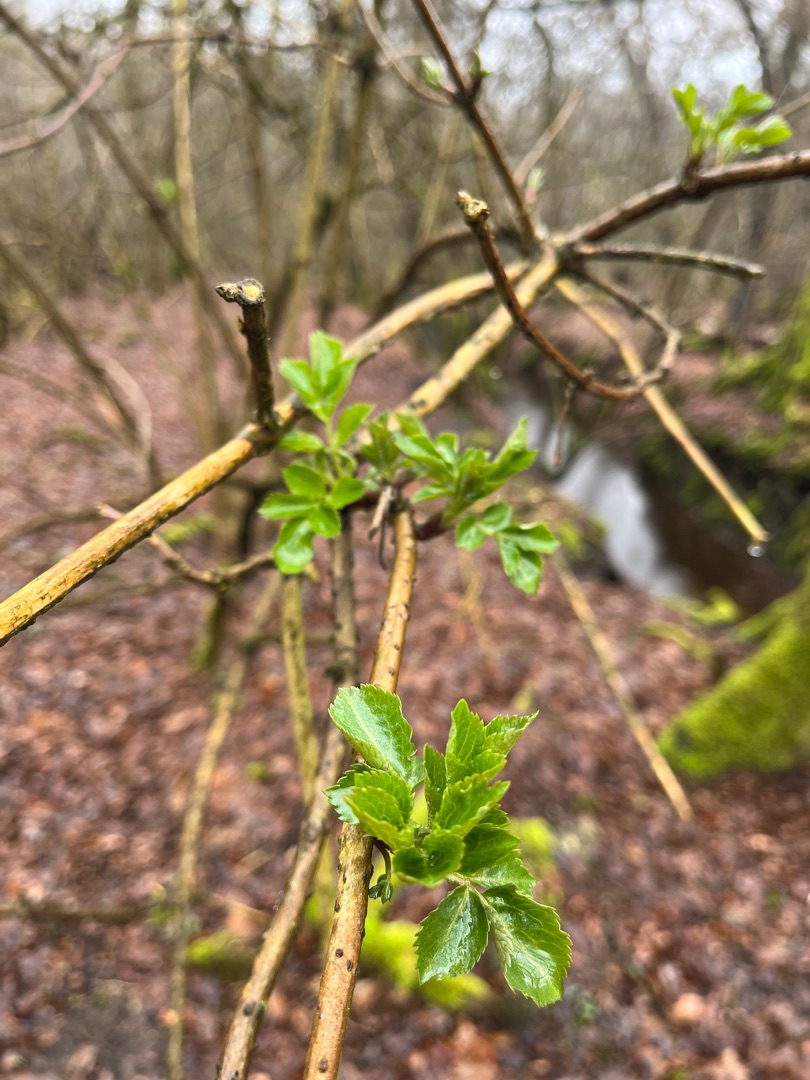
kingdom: Plantae
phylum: Tracheophyta
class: Magnoliopsida
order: Dipsacales
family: Viburnaceae
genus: Sambucus
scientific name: Sambucus nigra
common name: Almindelig hyld
